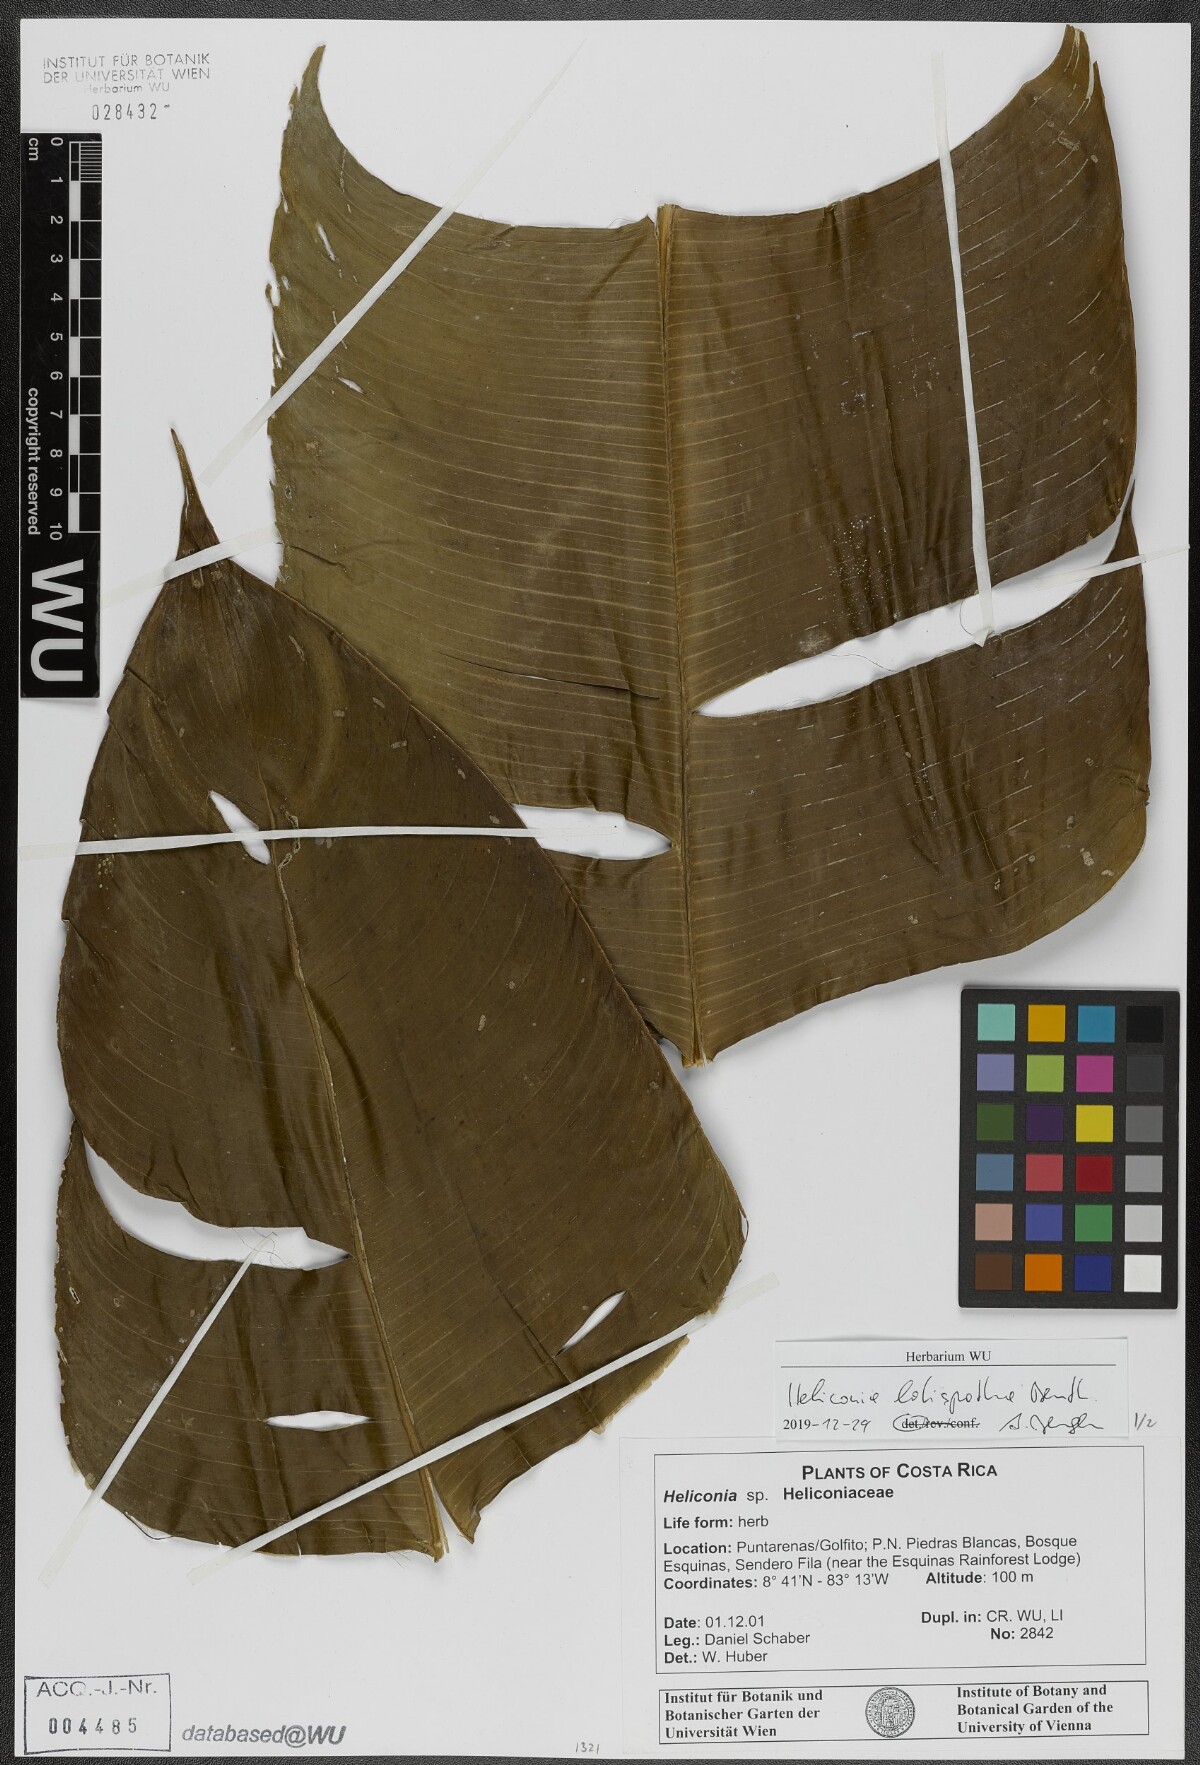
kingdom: Plantae
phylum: Tracheophyta
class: Liliopsida
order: Zingiberales
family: Heliconiaceae
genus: Heliconia
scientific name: Heliconia latispatha
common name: Expanded lobsterclaw
